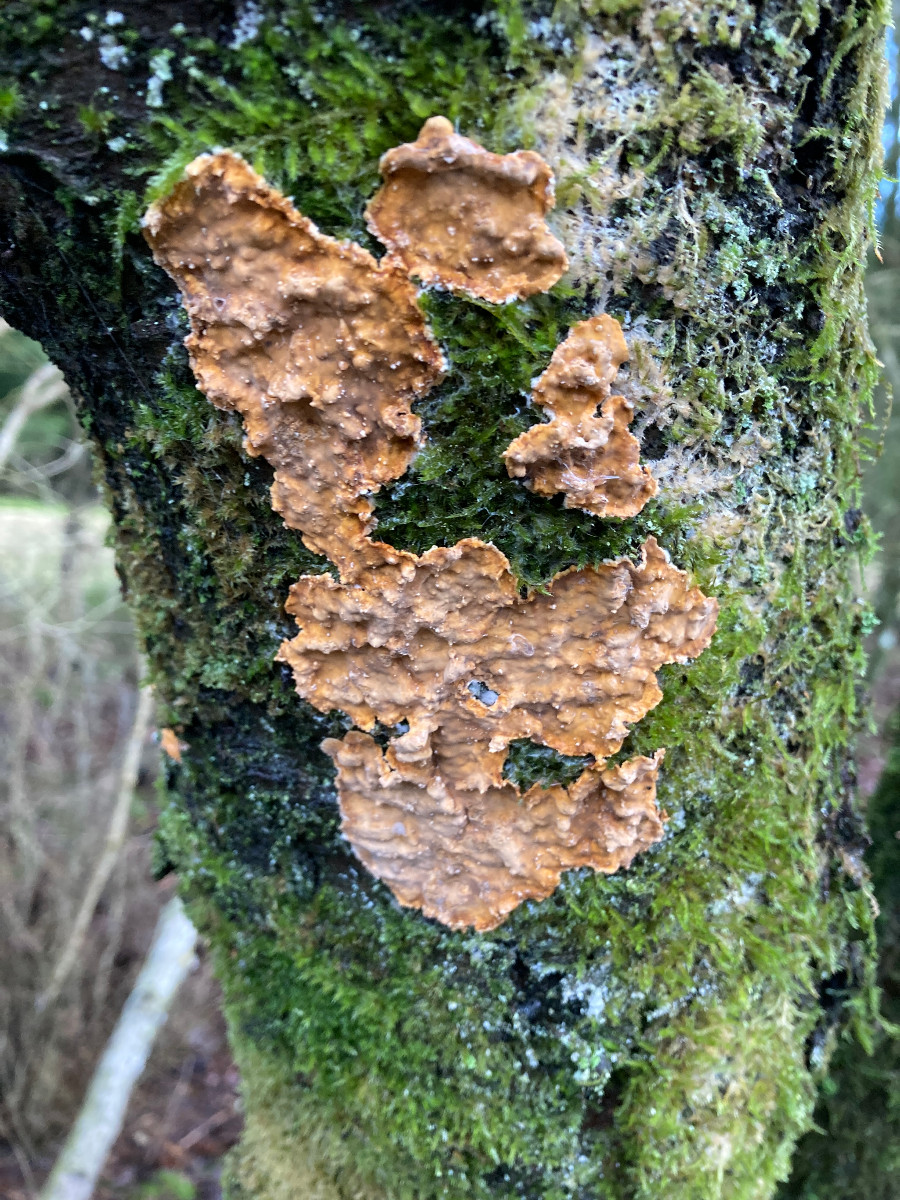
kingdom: Fungi
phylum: Basidiomycota
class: Agaricomycetes
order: Russulales
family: Stereaceae
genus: Stereum
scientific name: Stereum rugosum
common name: rynket lædersvamp
